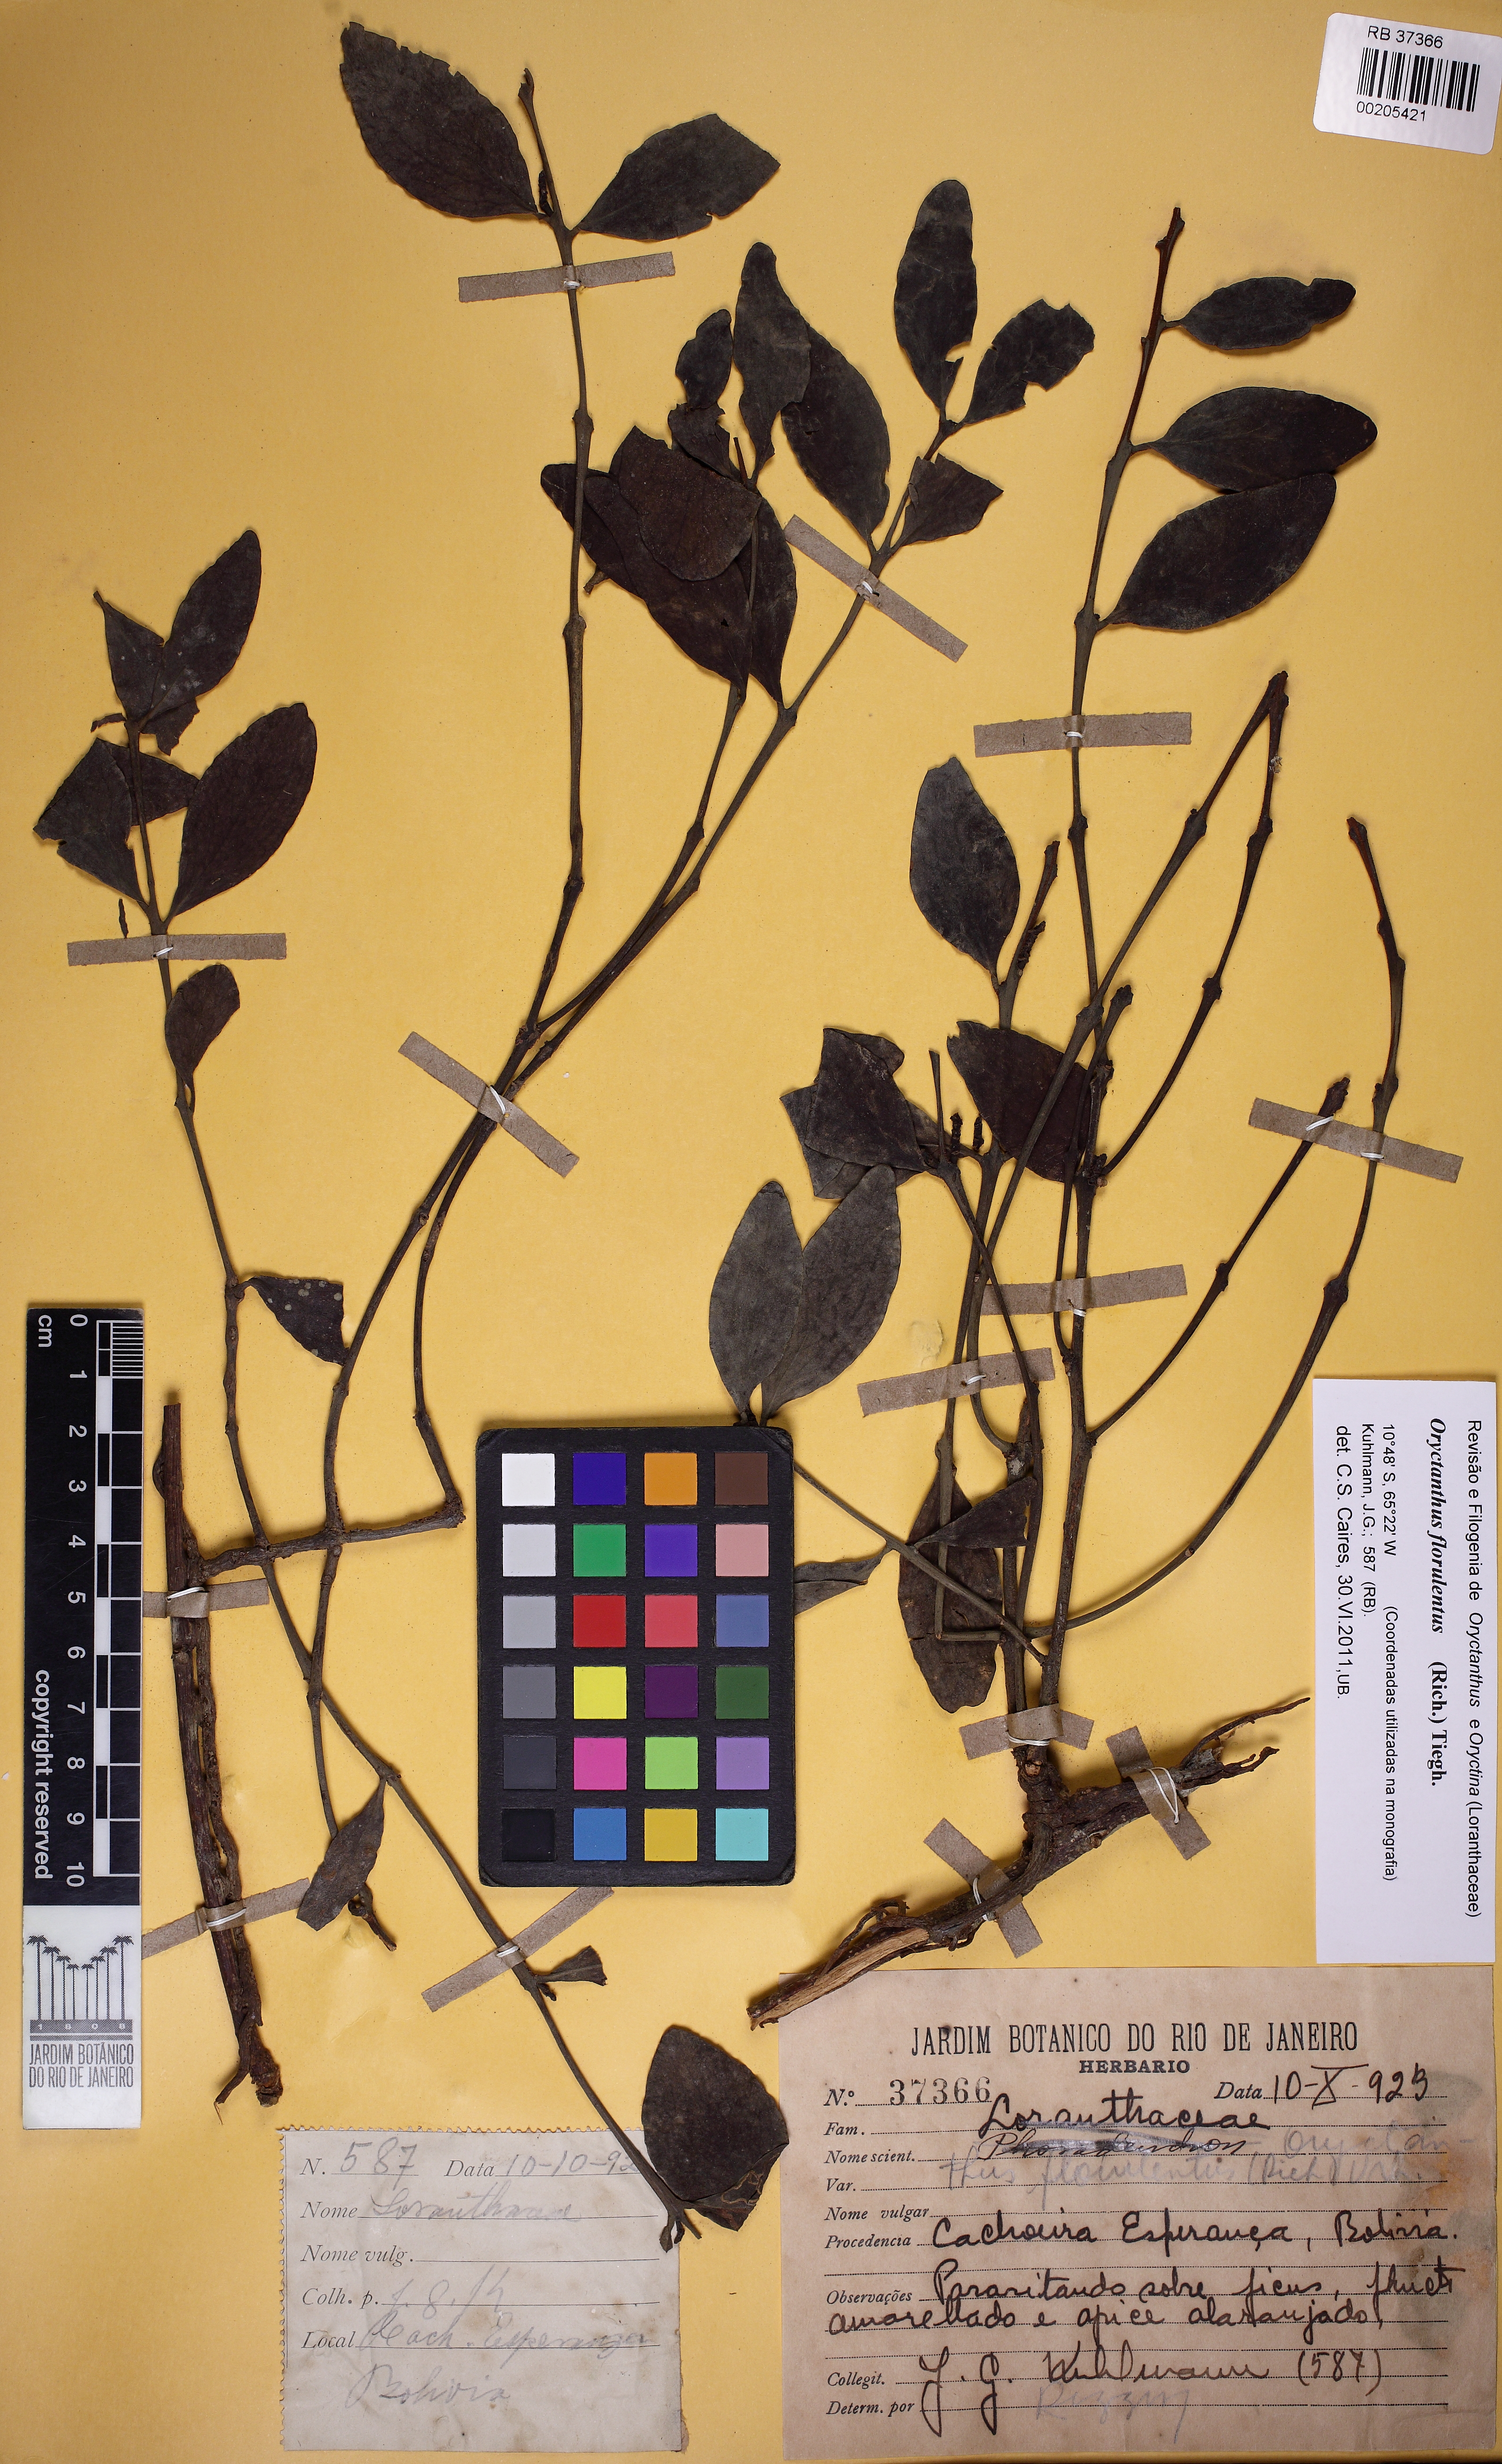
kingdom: Plantae
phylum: Tracheophyta
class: Magnoliopsida
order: Santalales
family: Loranthaceae
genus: Oryctanthus
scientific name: Oryctanthus florulentus
